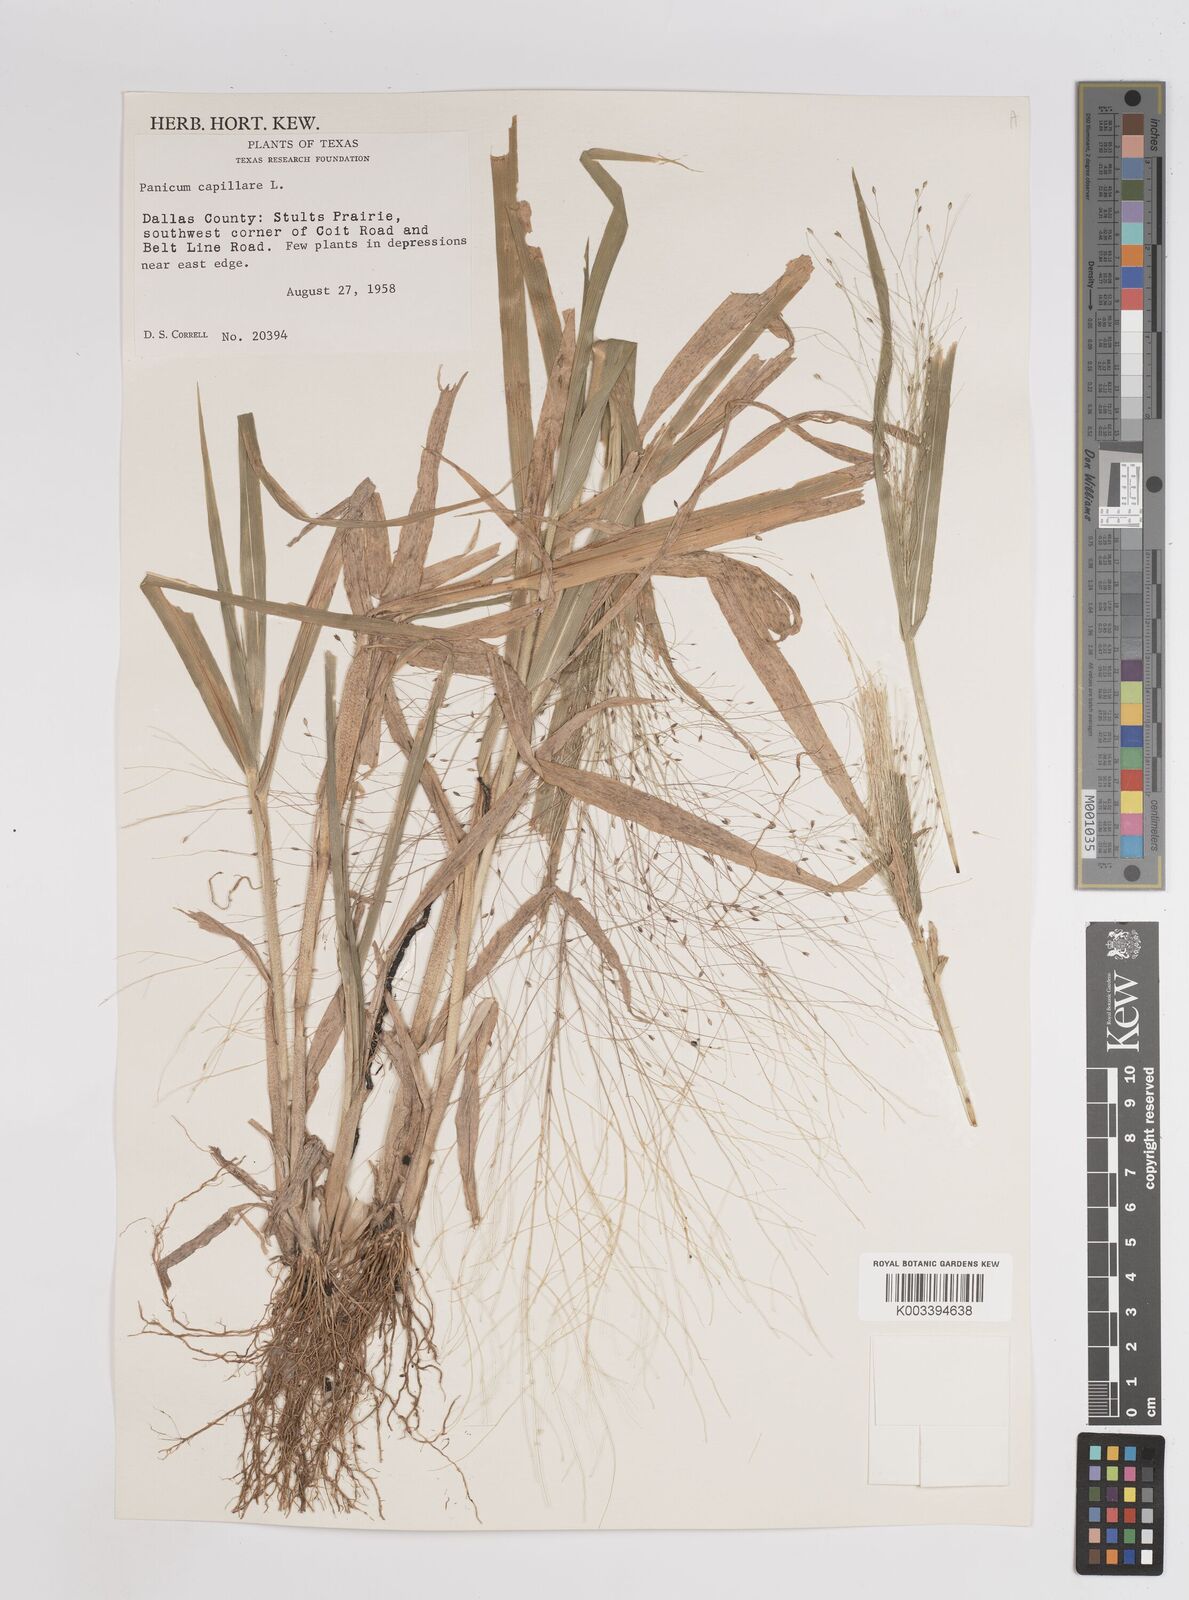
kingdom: Plantae
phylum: Tracheophyta
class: Liliopsida
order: Poales
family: Poaceae
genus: Panicum
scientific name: Panicum capillare
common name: Witch-grass
